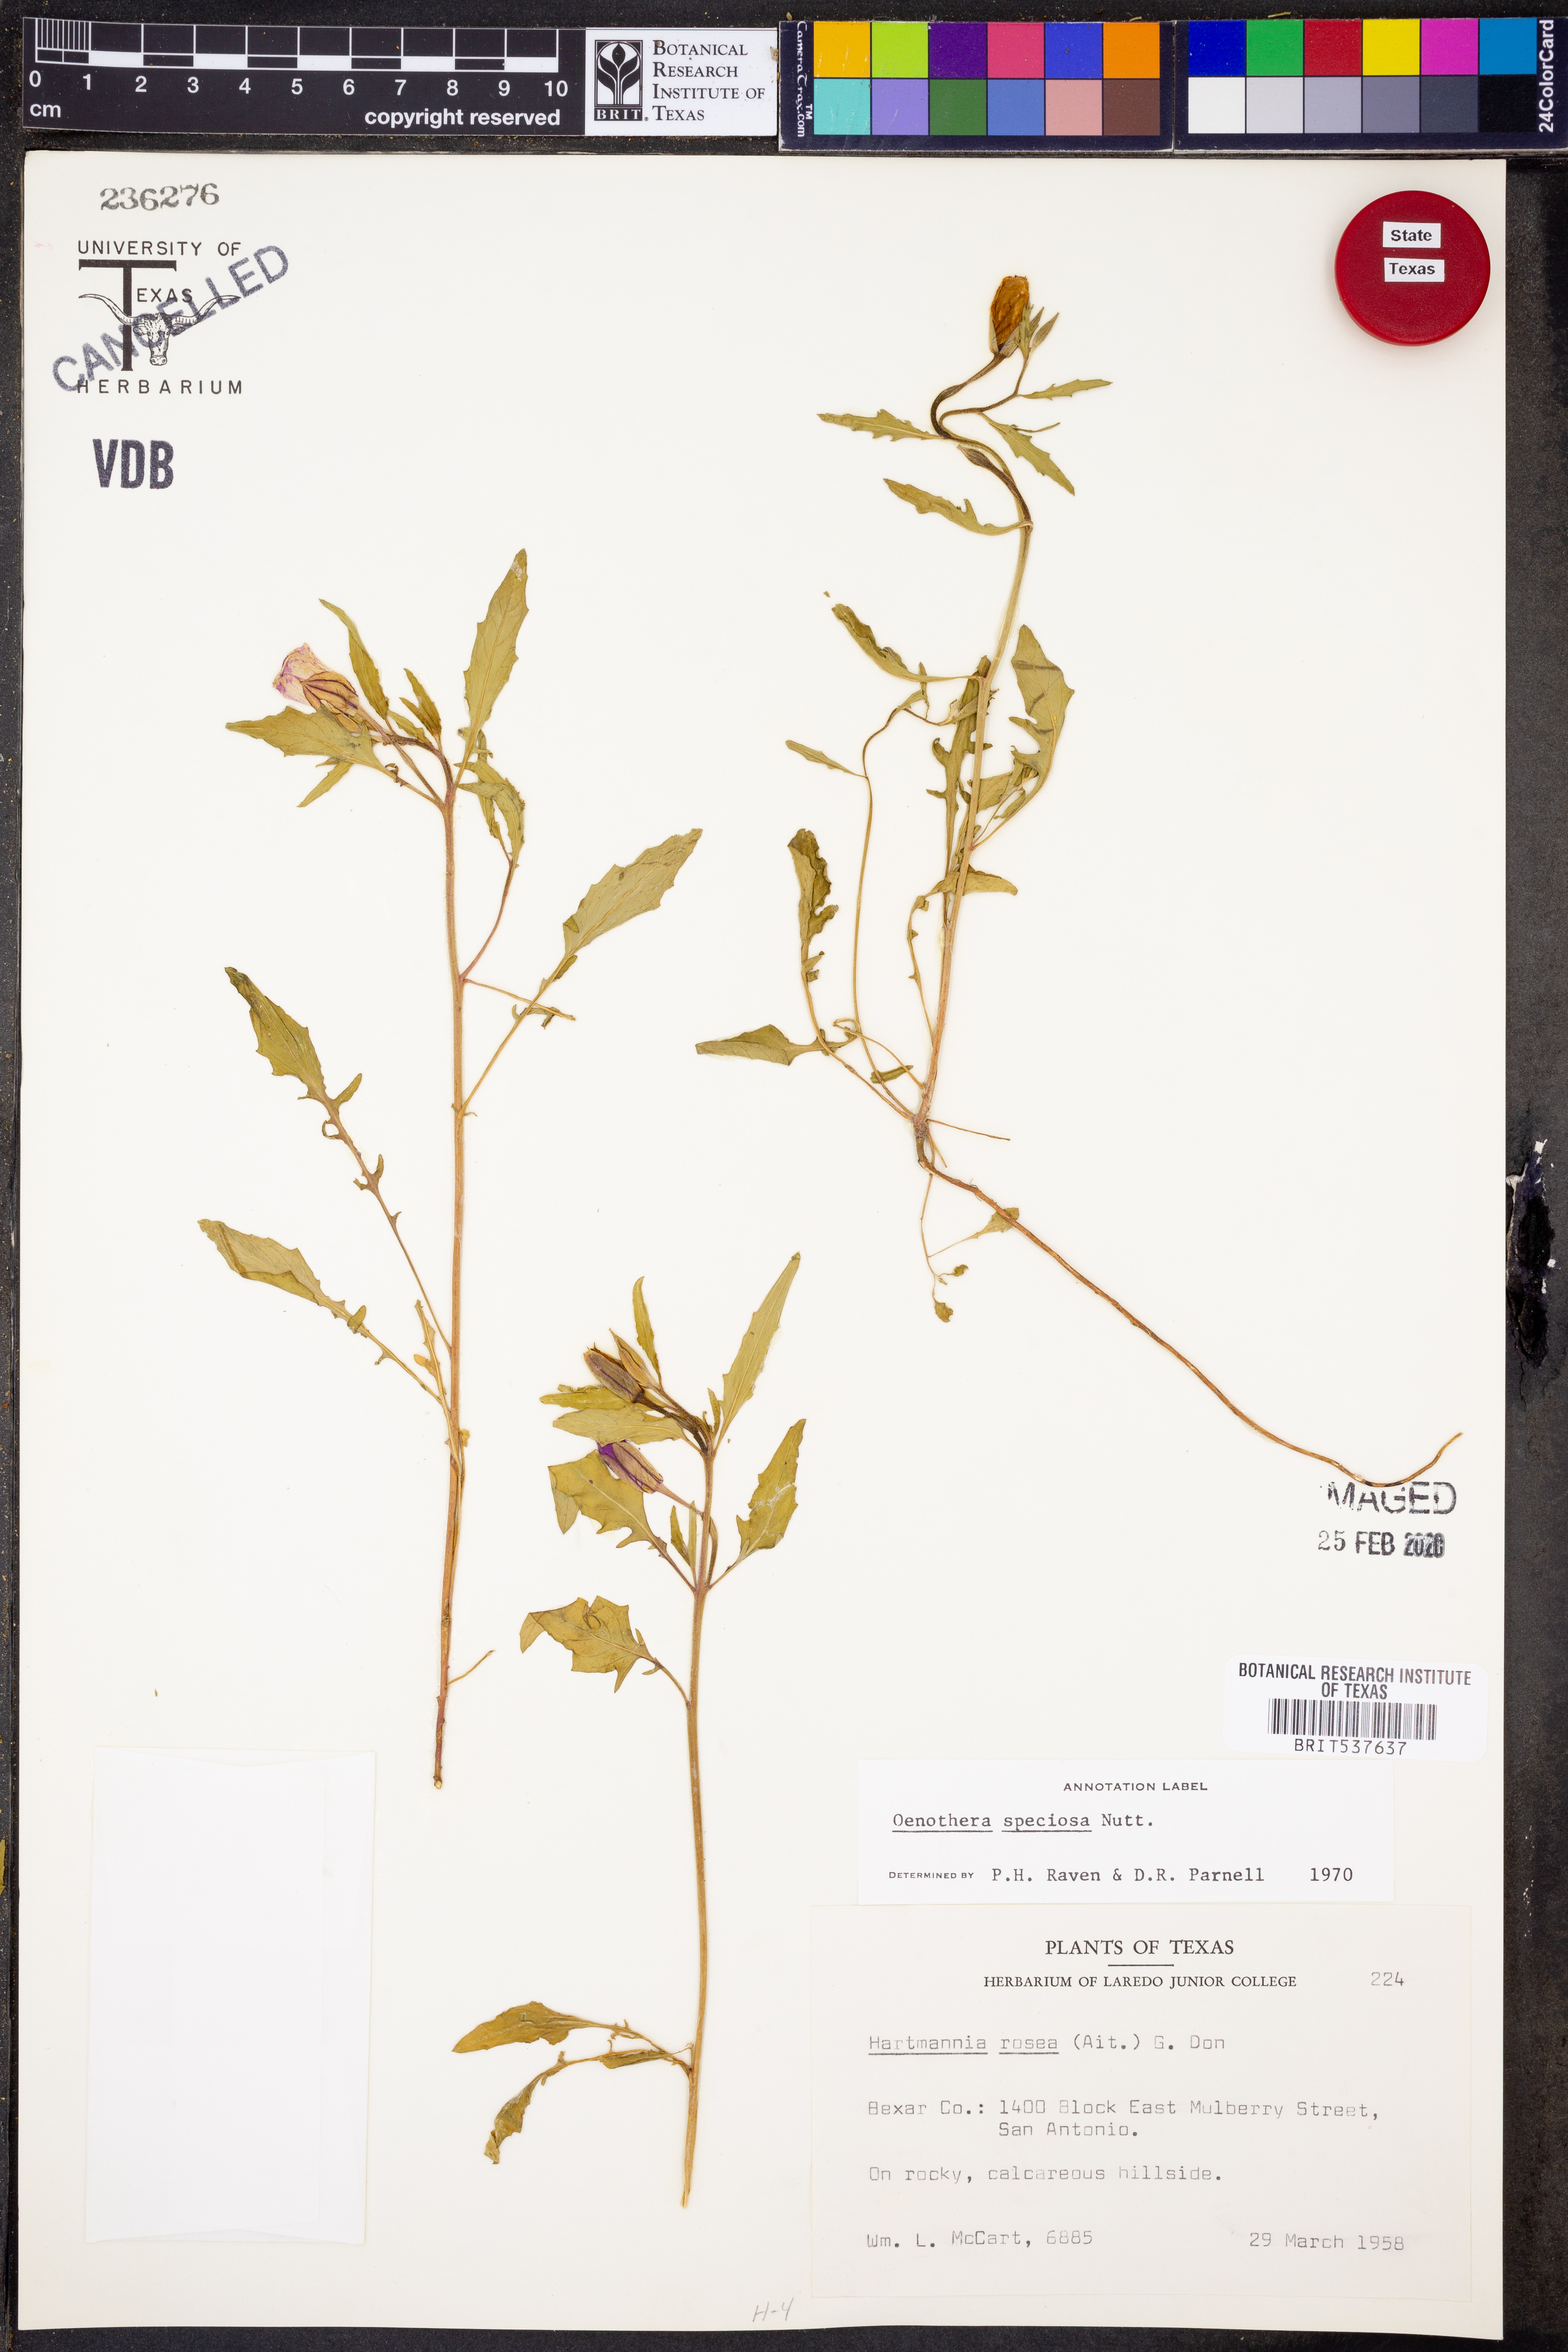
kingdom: Plantae
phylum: Tracheophyta
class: Magnoliopsida
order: Myrtales
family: Onagraceae
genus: Oenothera
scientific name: Oenothera speciosa
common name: White evening-primrose
